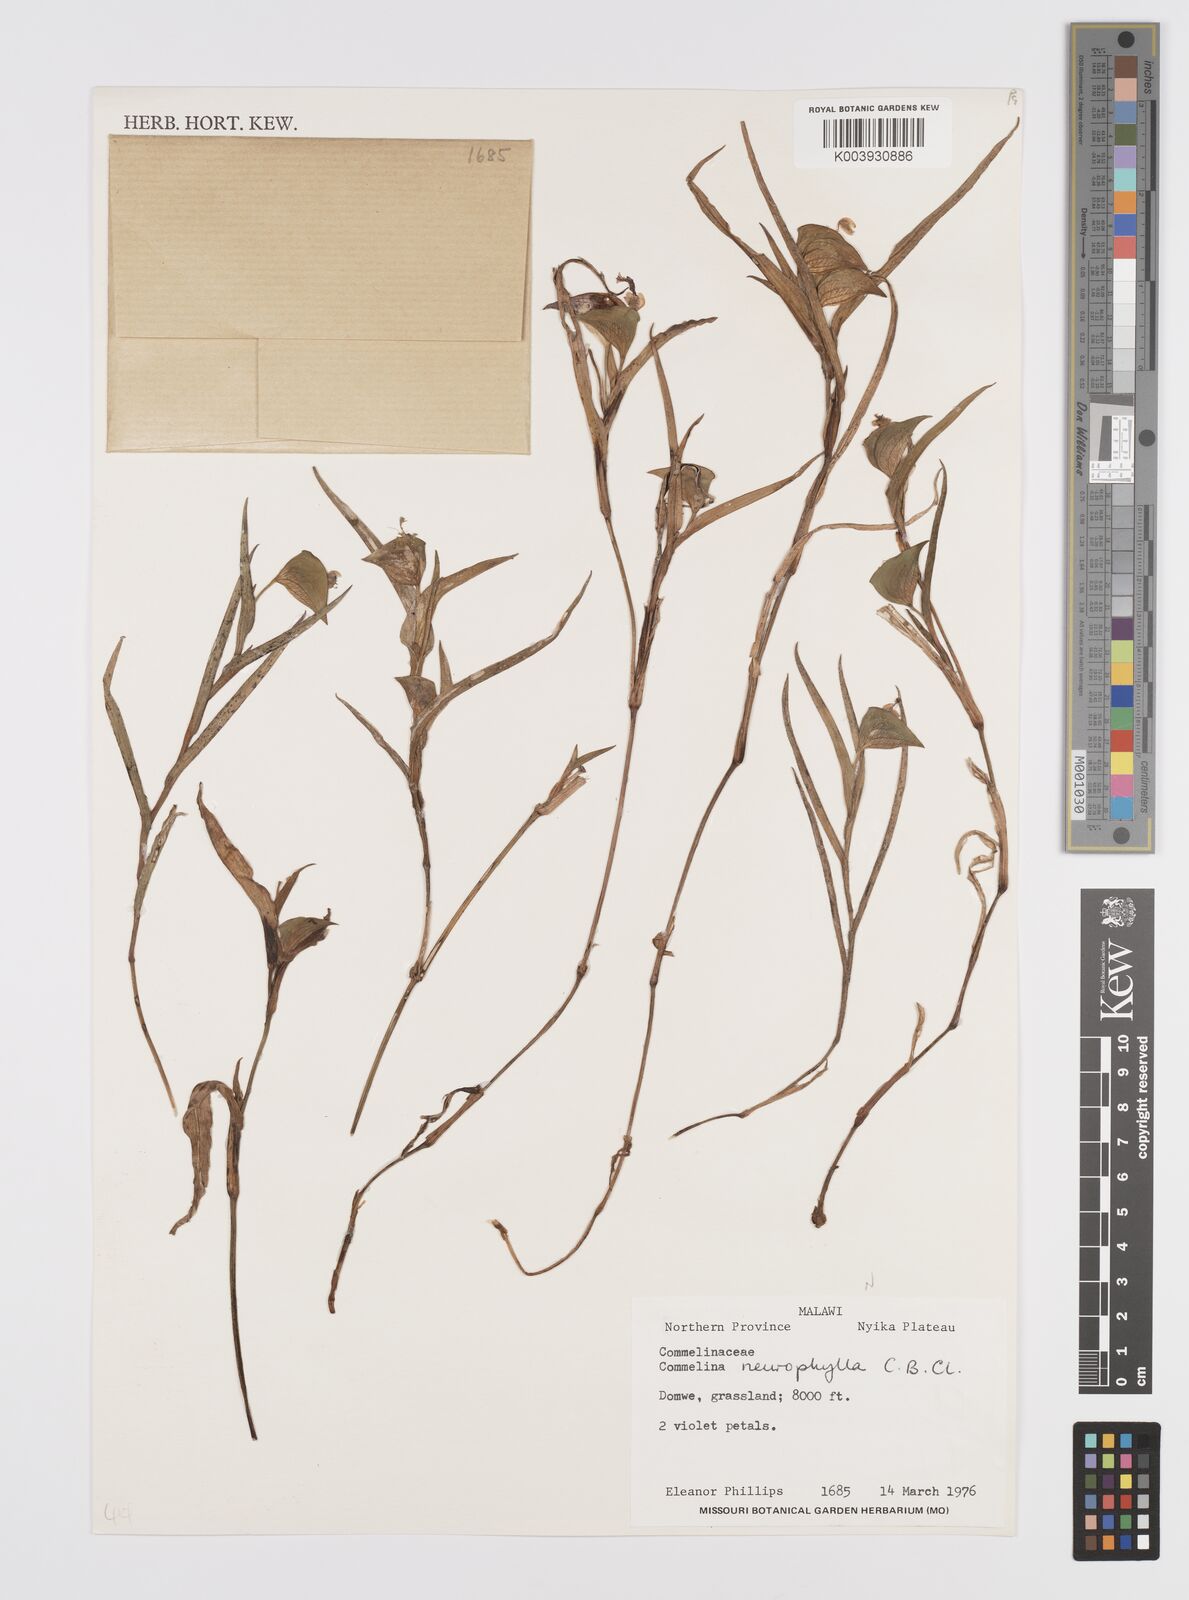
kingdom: Plantae
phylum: Tracheophyta
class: Liliopsida
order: Commelinales
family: Commelinaceae
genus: Commelina
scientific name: Commelina neurophylla
